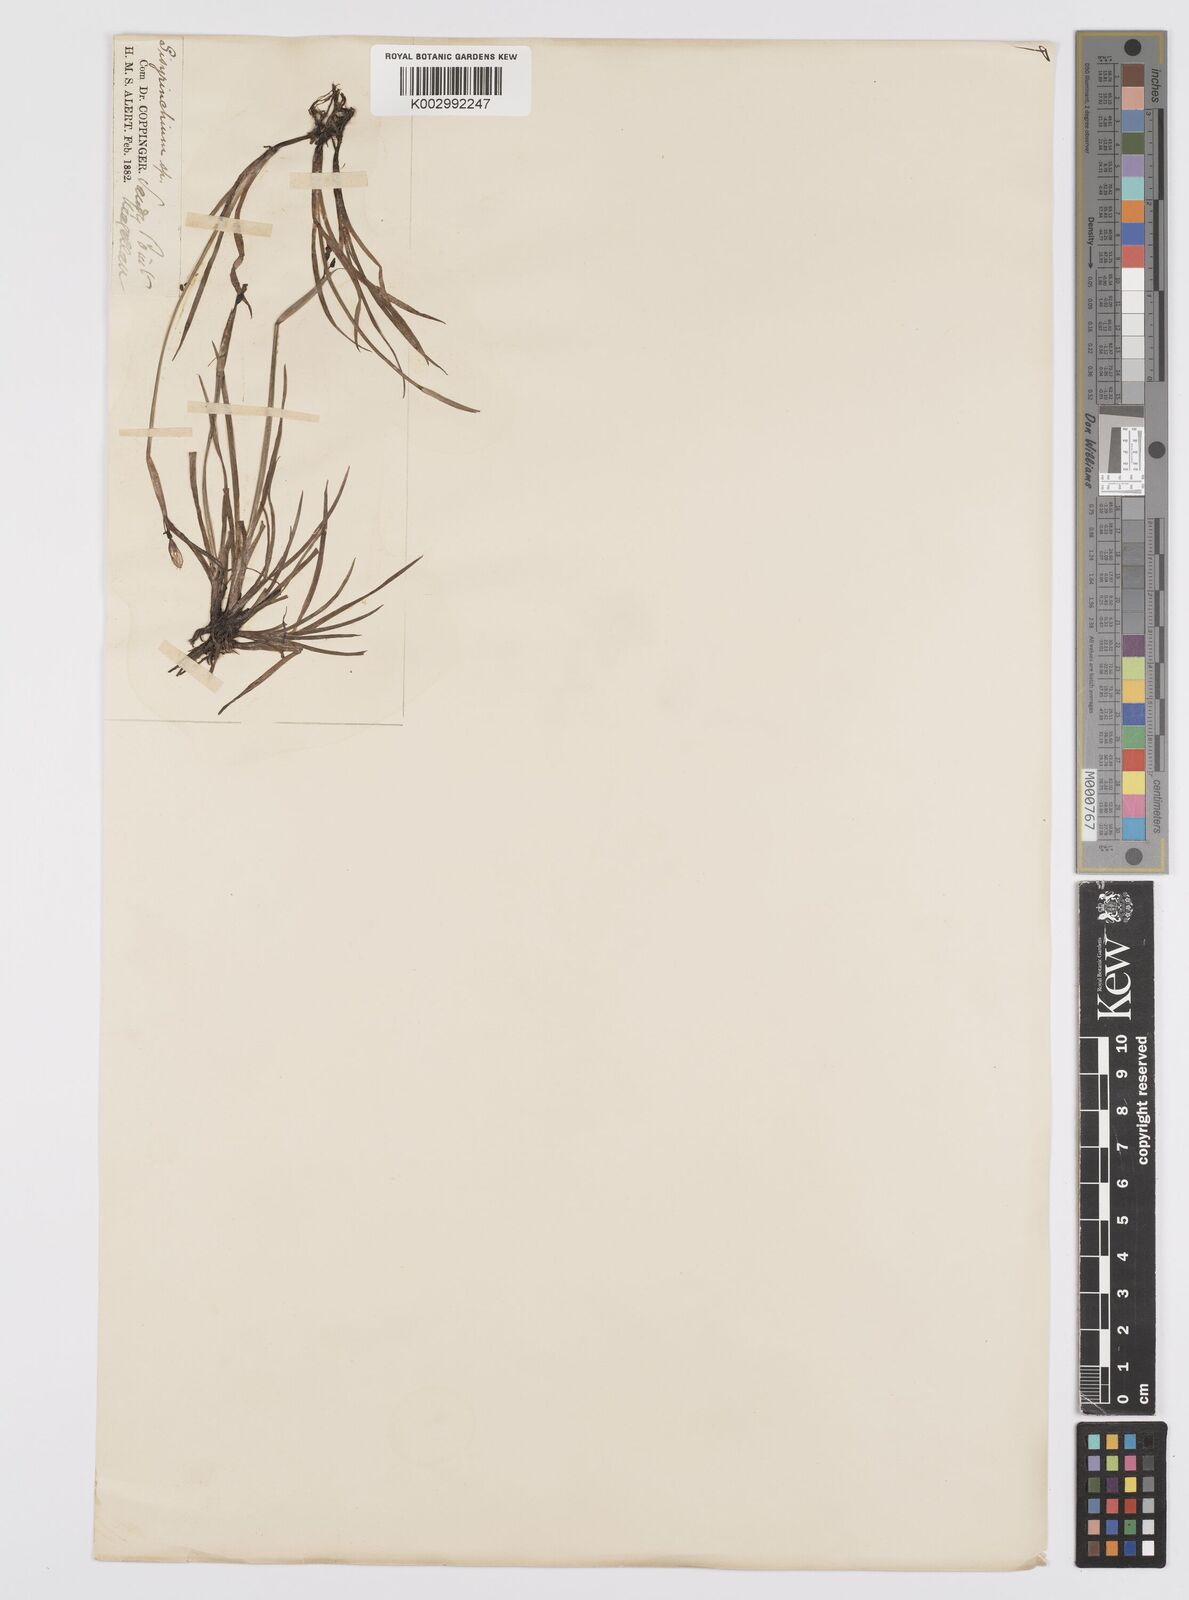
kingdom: Plantae
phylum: Tracheophyta
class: Liliopsida
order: Asparagales
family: Iridaceae
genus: Sisyrinchium
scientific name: Sisyrinchium
